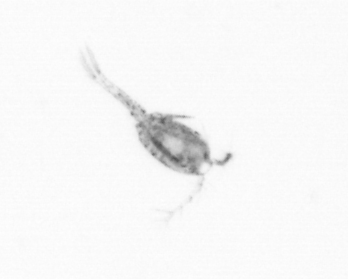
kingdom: Animalia
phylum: Arthropoda
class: Copepoda
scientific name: Copepoda
